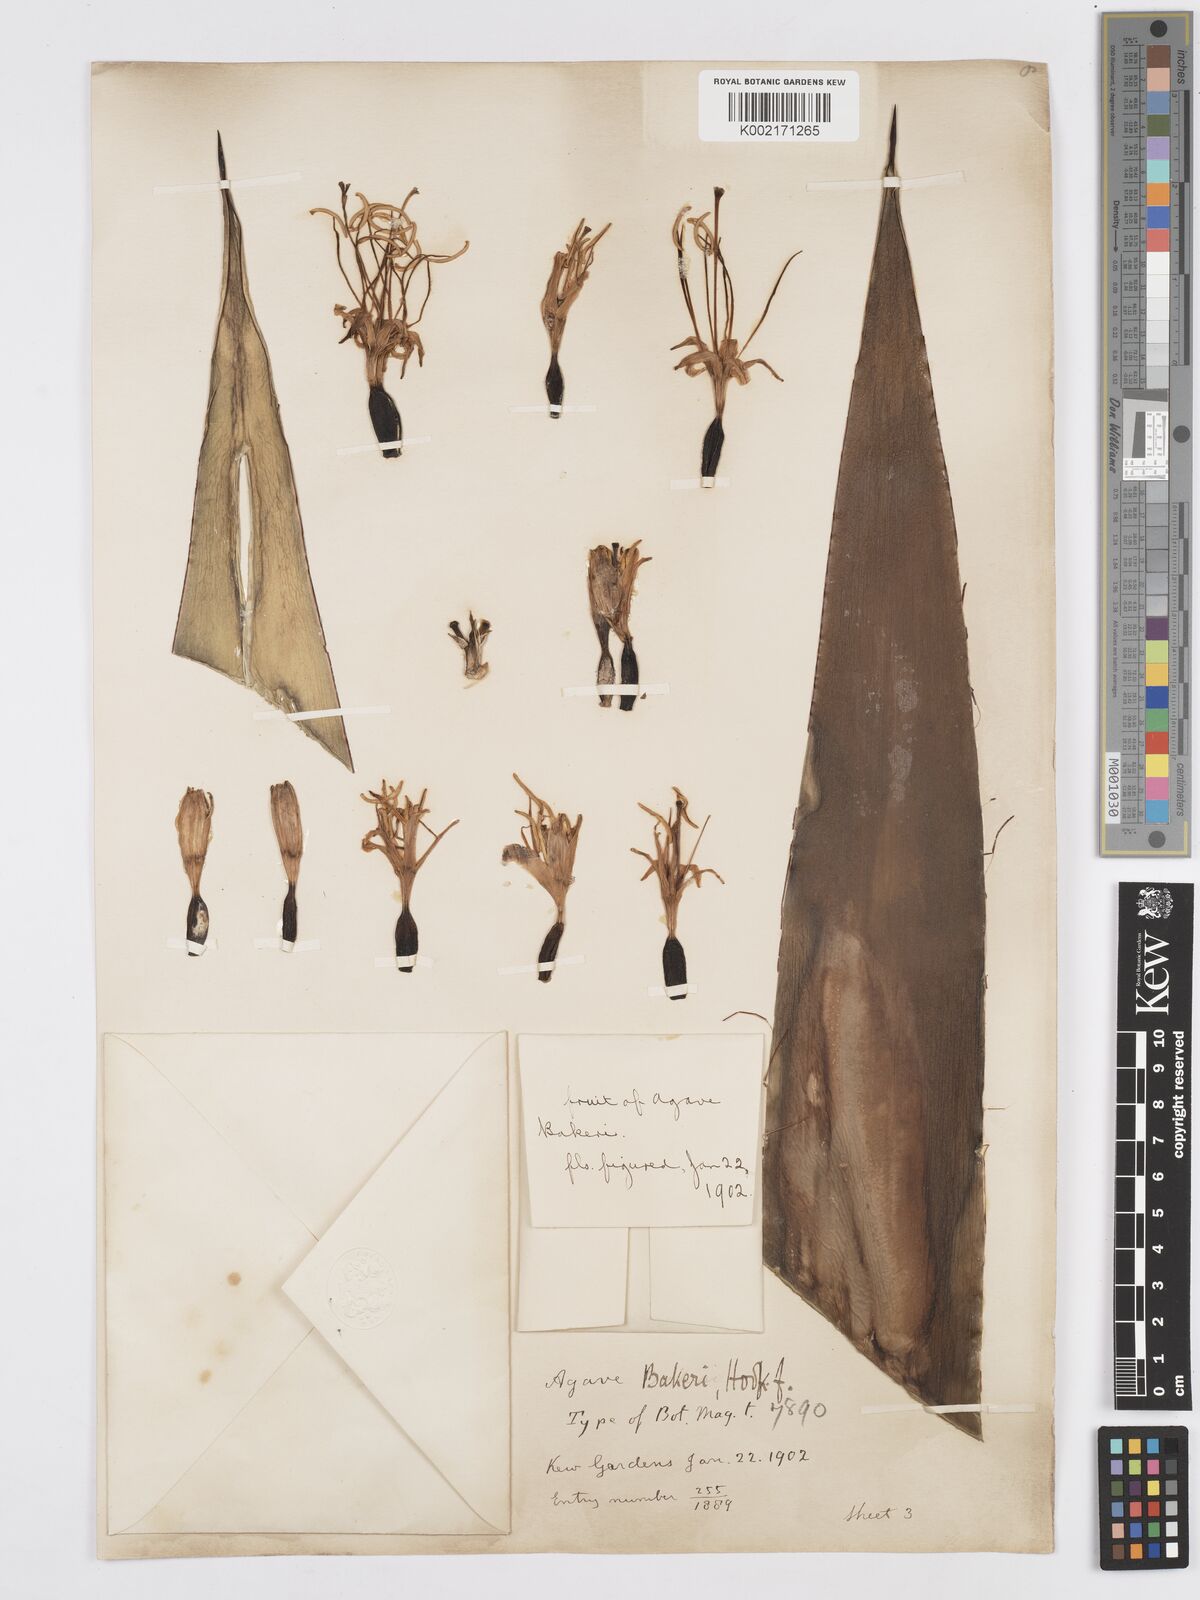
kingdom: Plantae
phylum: Tracheophyta
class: Liliopsida
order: Asparagales
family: Asparagaceae
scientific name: Asparagaceae
